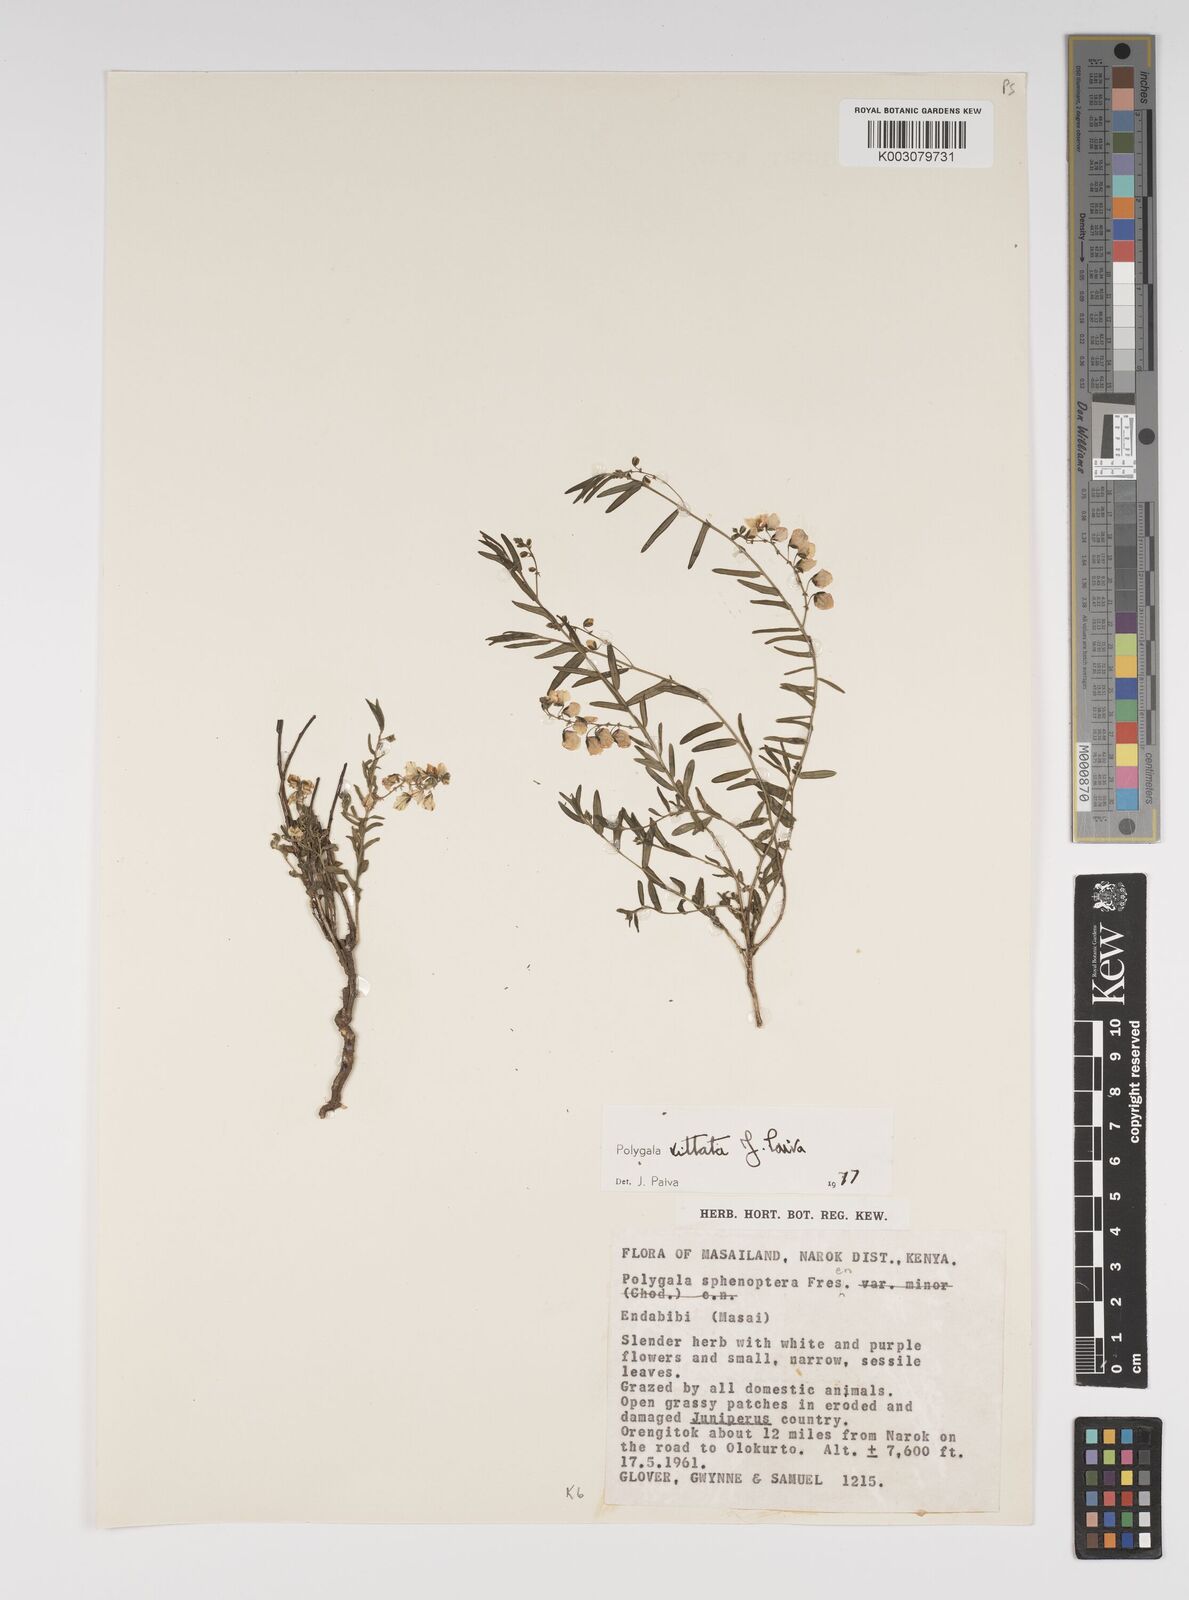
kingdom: Plantae
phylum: Tracheophyta
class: Magnoliopsida
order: Fabales
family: Polygalaceae
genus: Polygala
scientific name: Polygala vittata
